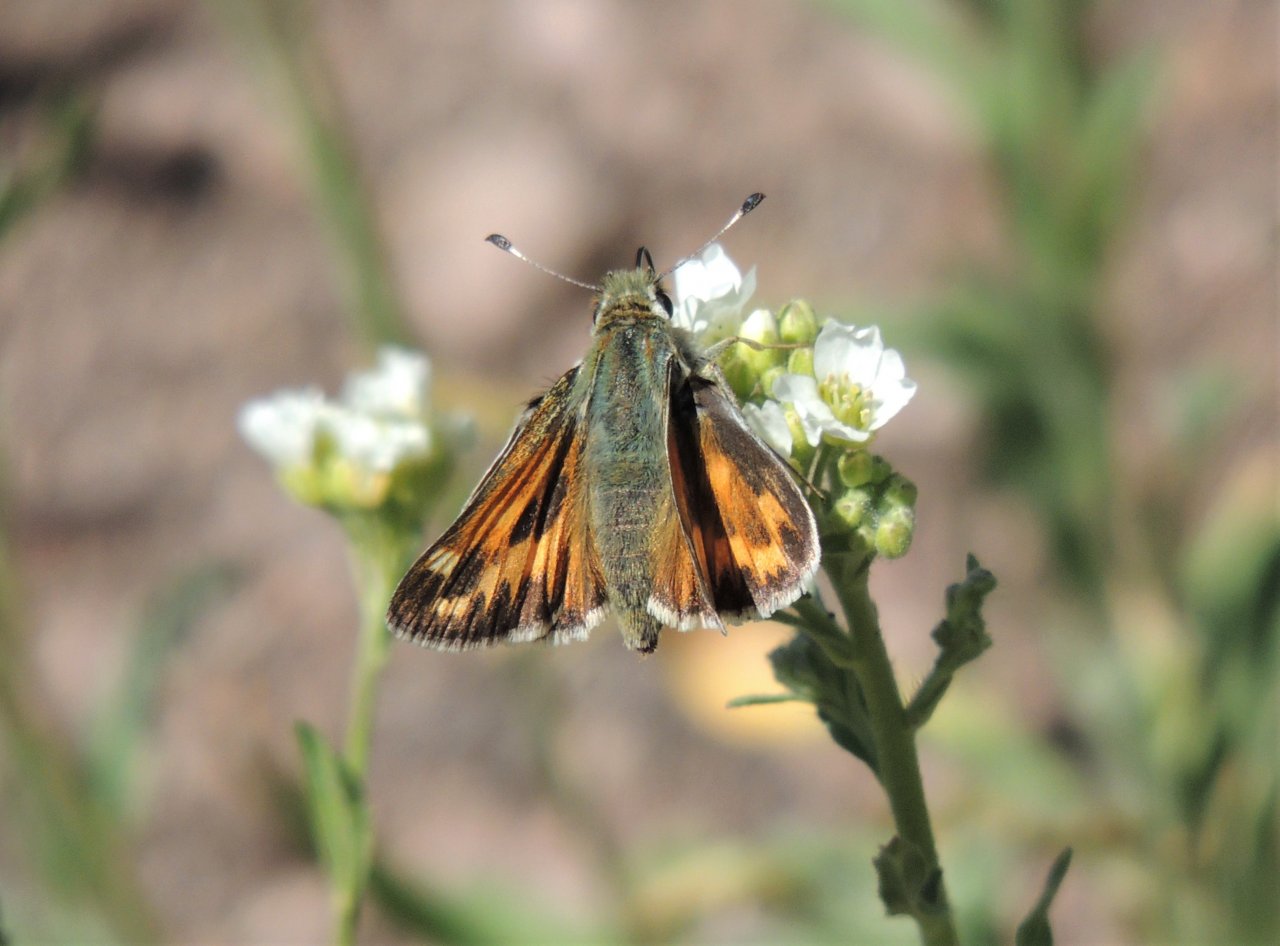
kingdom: Animalia
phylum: Arthropoda
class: Insecta
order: Lepidoptera
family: Hesperiidae
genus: Hesperia
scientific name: Hesperia juba
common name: Juba Skipper
